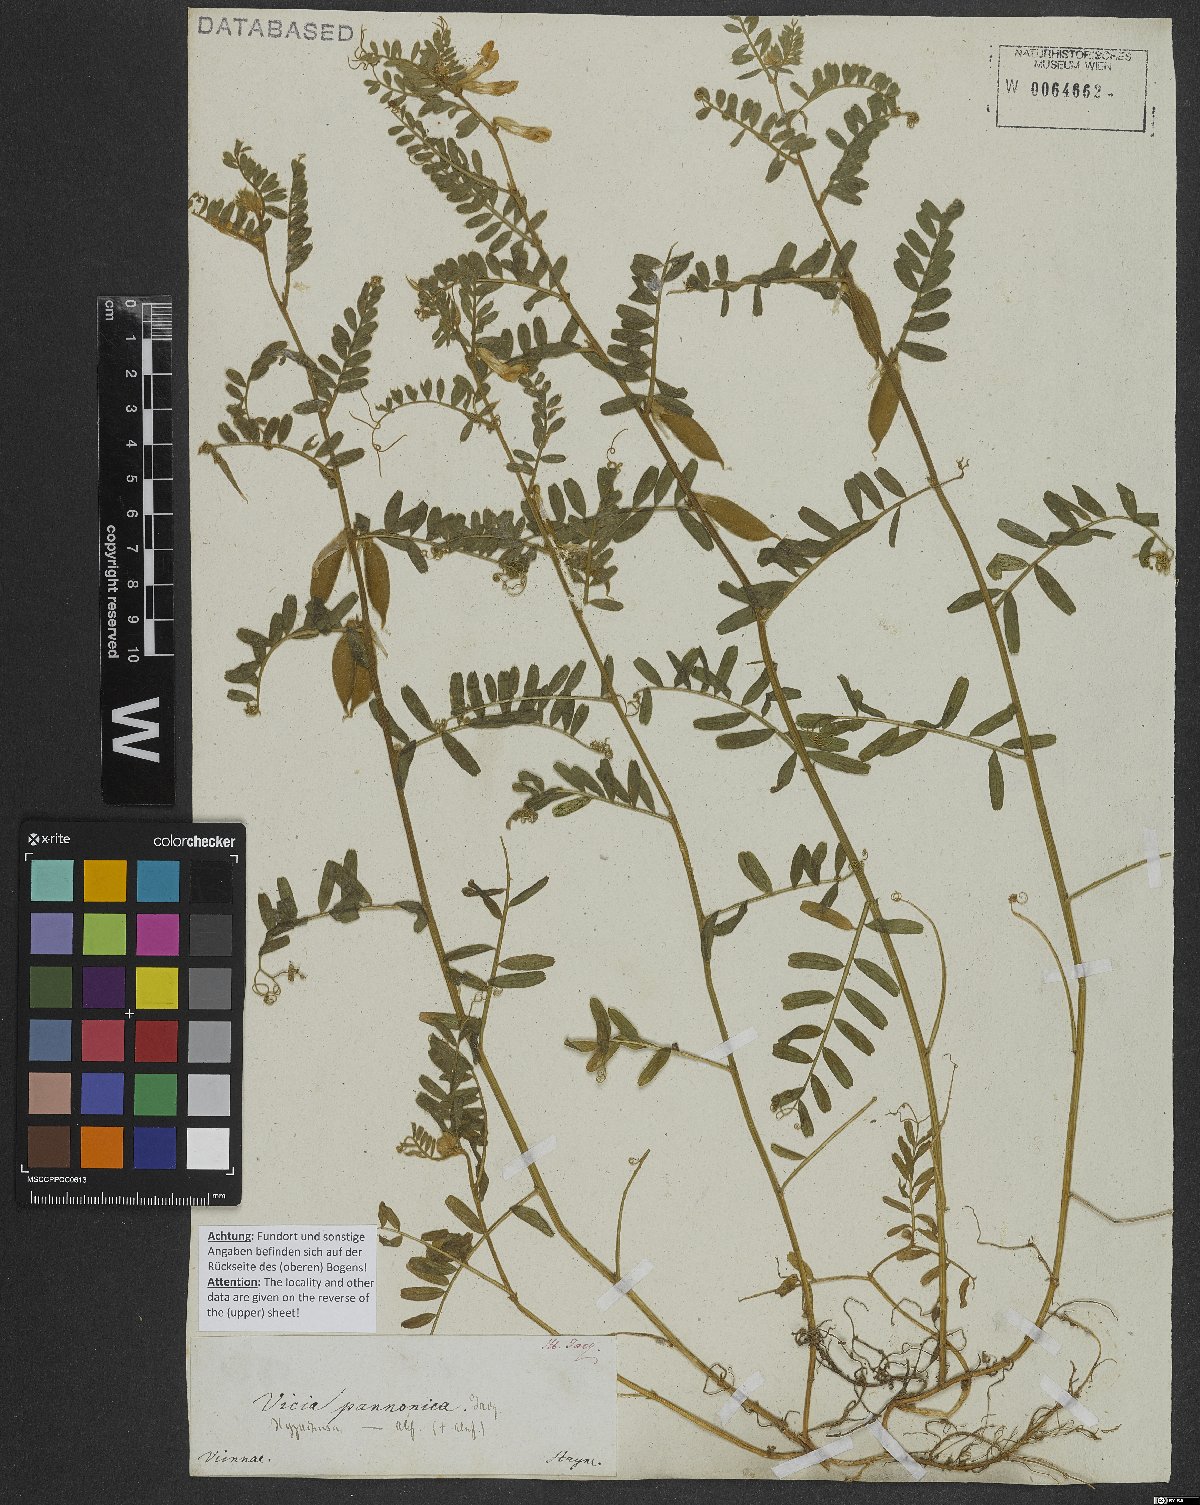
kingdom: Plantae
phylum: Tracheophyta
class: Magnoliopsida
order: Fabales
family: Fabaceae
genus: Vicia
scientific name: Vicia pannonica
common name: Hungarian vetch
